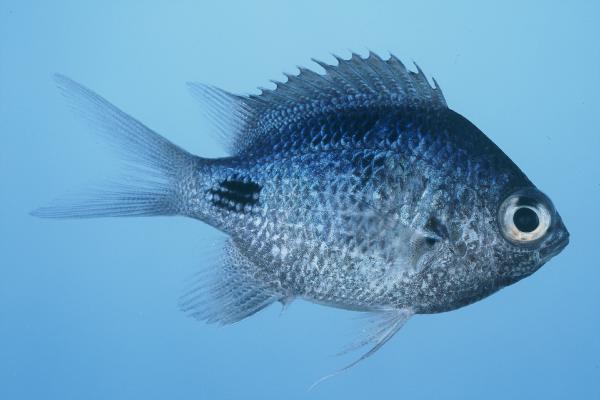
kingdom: Animalia
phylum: Chordata
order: Perciformes
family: Pomacentridae
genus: Abudefduf
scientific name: Abudefduf sparoides
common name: False-eye sergeant
